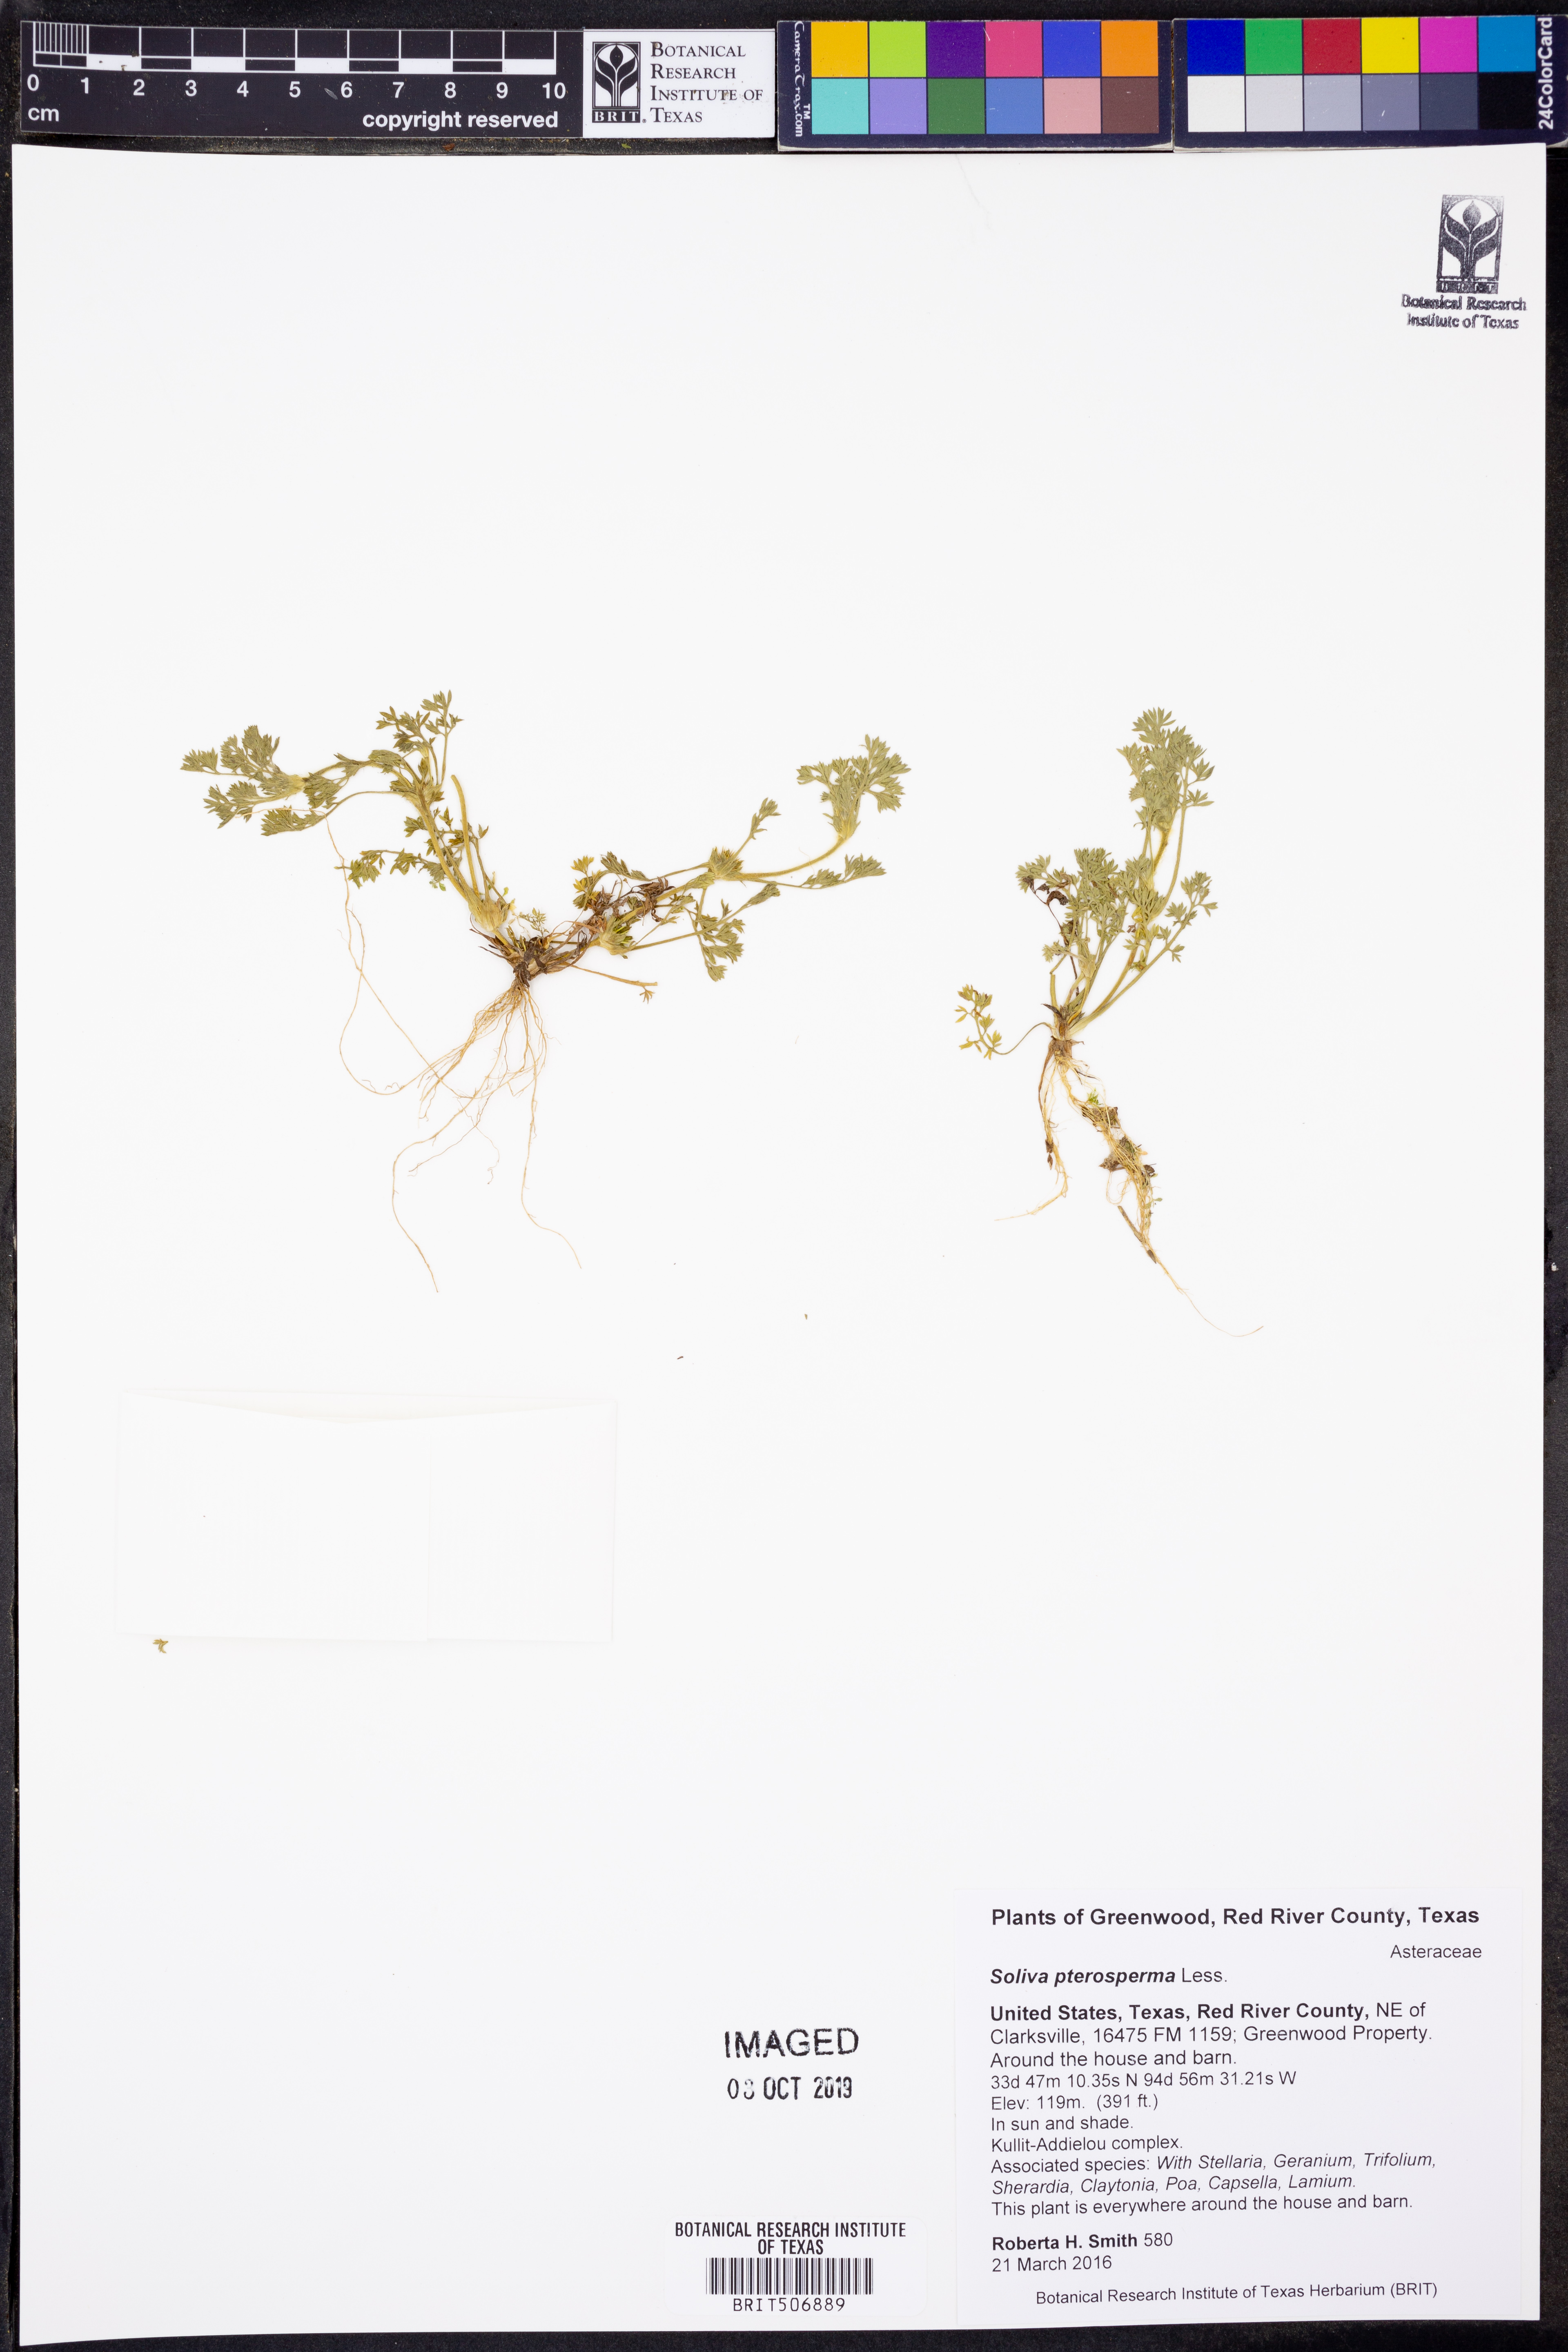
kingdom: Plantae
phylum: Tracheophyta
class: Magnoliopsida
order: Asterales
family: Asteraceae
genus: Soliva
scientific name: Soliva sessilis
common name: Field burrweed
